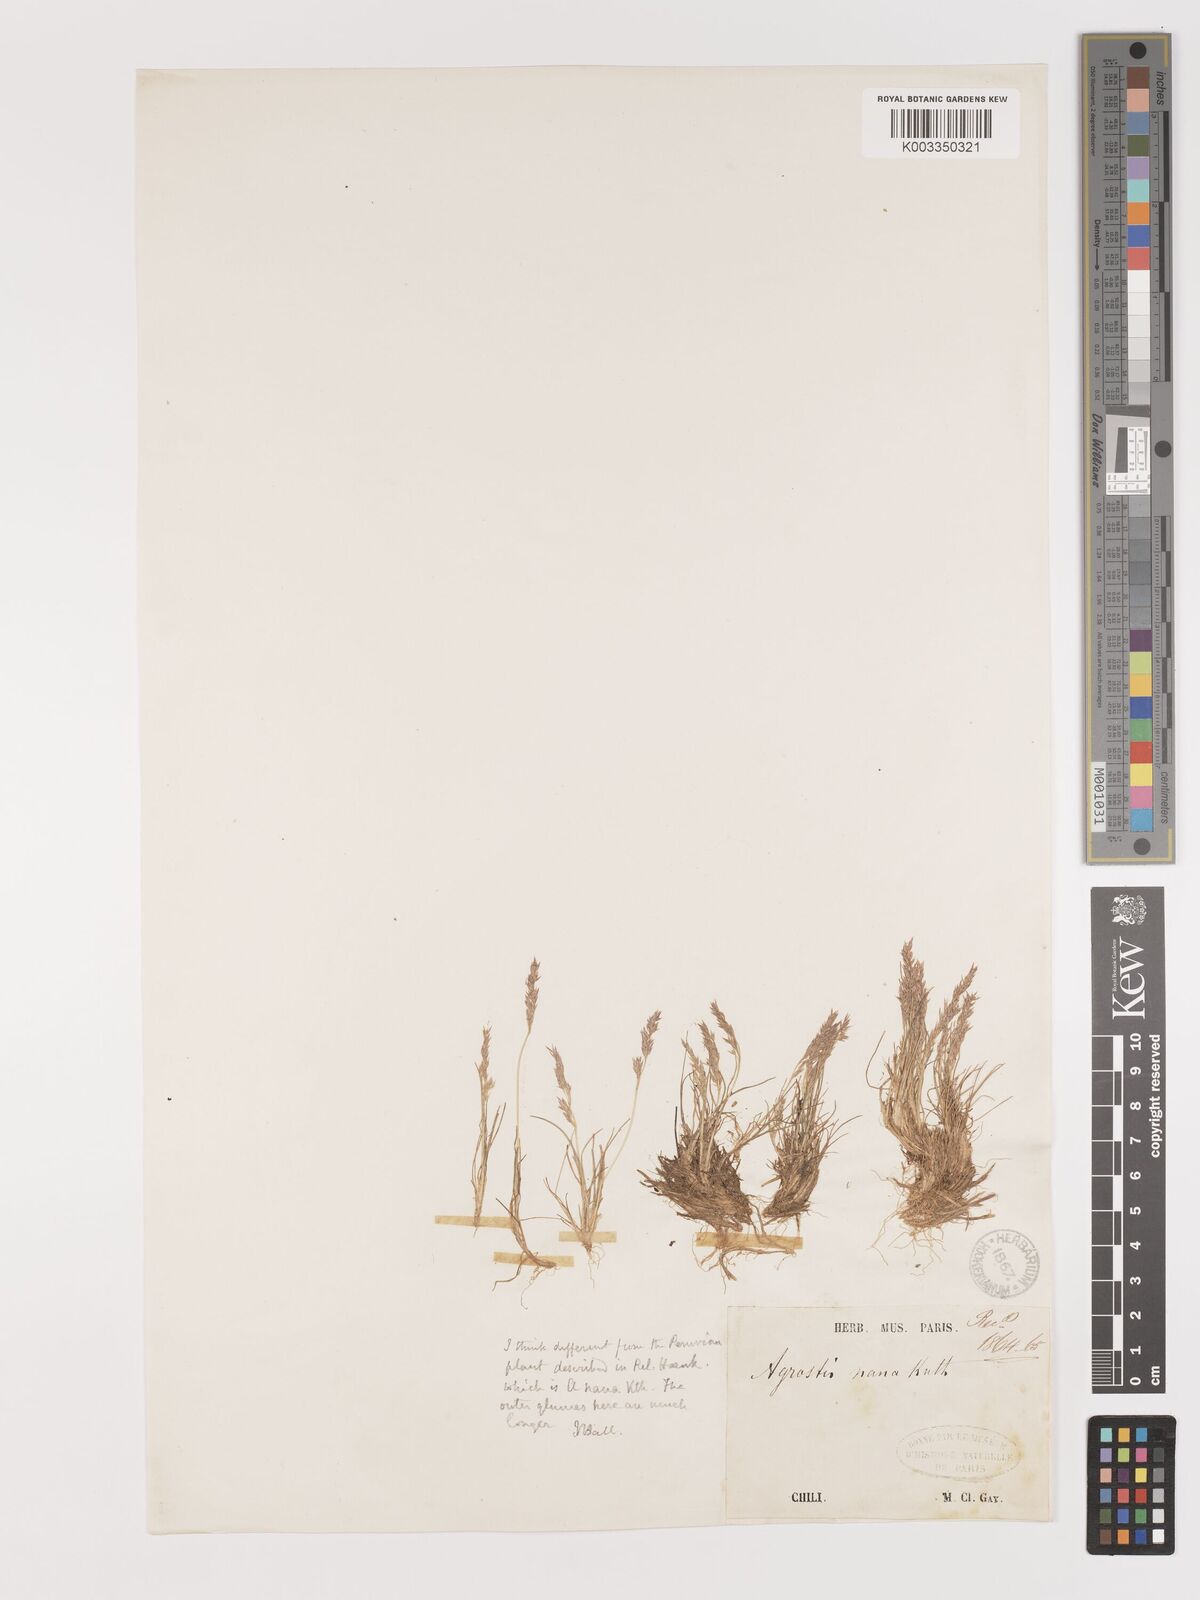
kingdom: Plantae
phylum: Tracheophyta
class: Liliopsida
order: Poales
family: Poaceae
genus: Agrostis
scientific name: Agrostis
